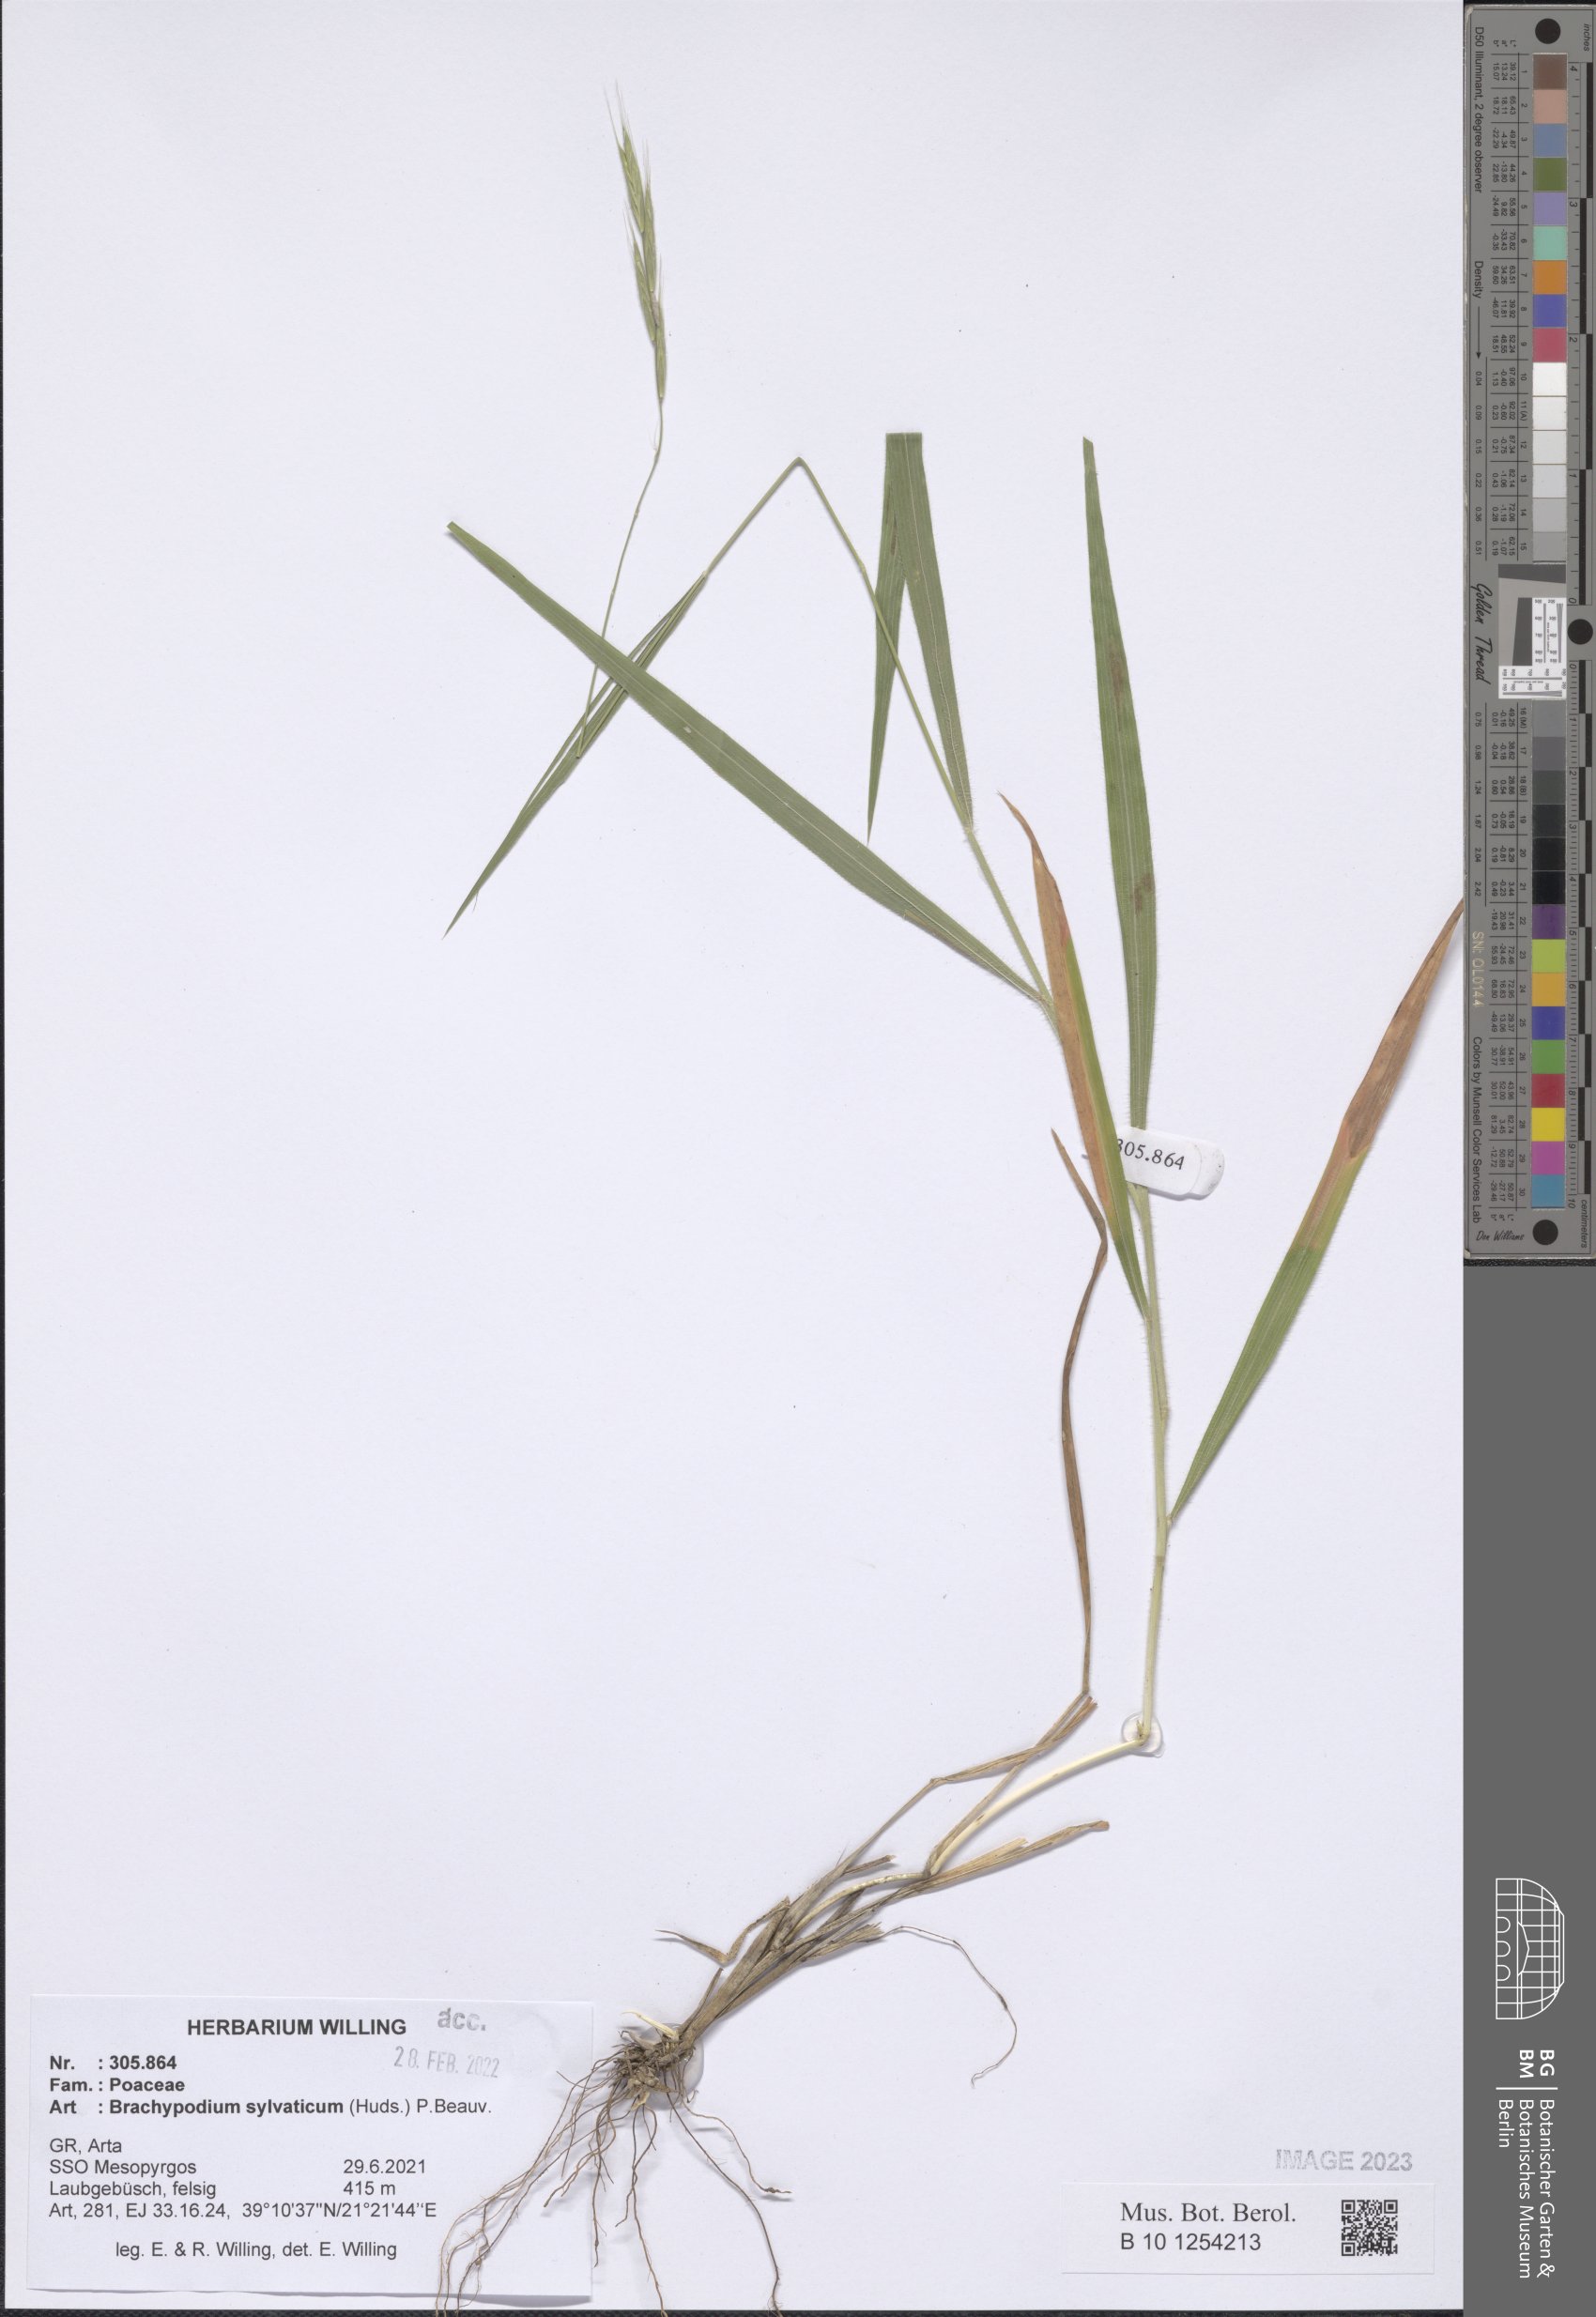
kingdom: Plantae
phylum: Tracheophyta
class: Liliopsida
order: Poales
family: Poaceae
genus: Brachypodium
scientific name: Brachypodium sylvaticum
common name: False-brome
